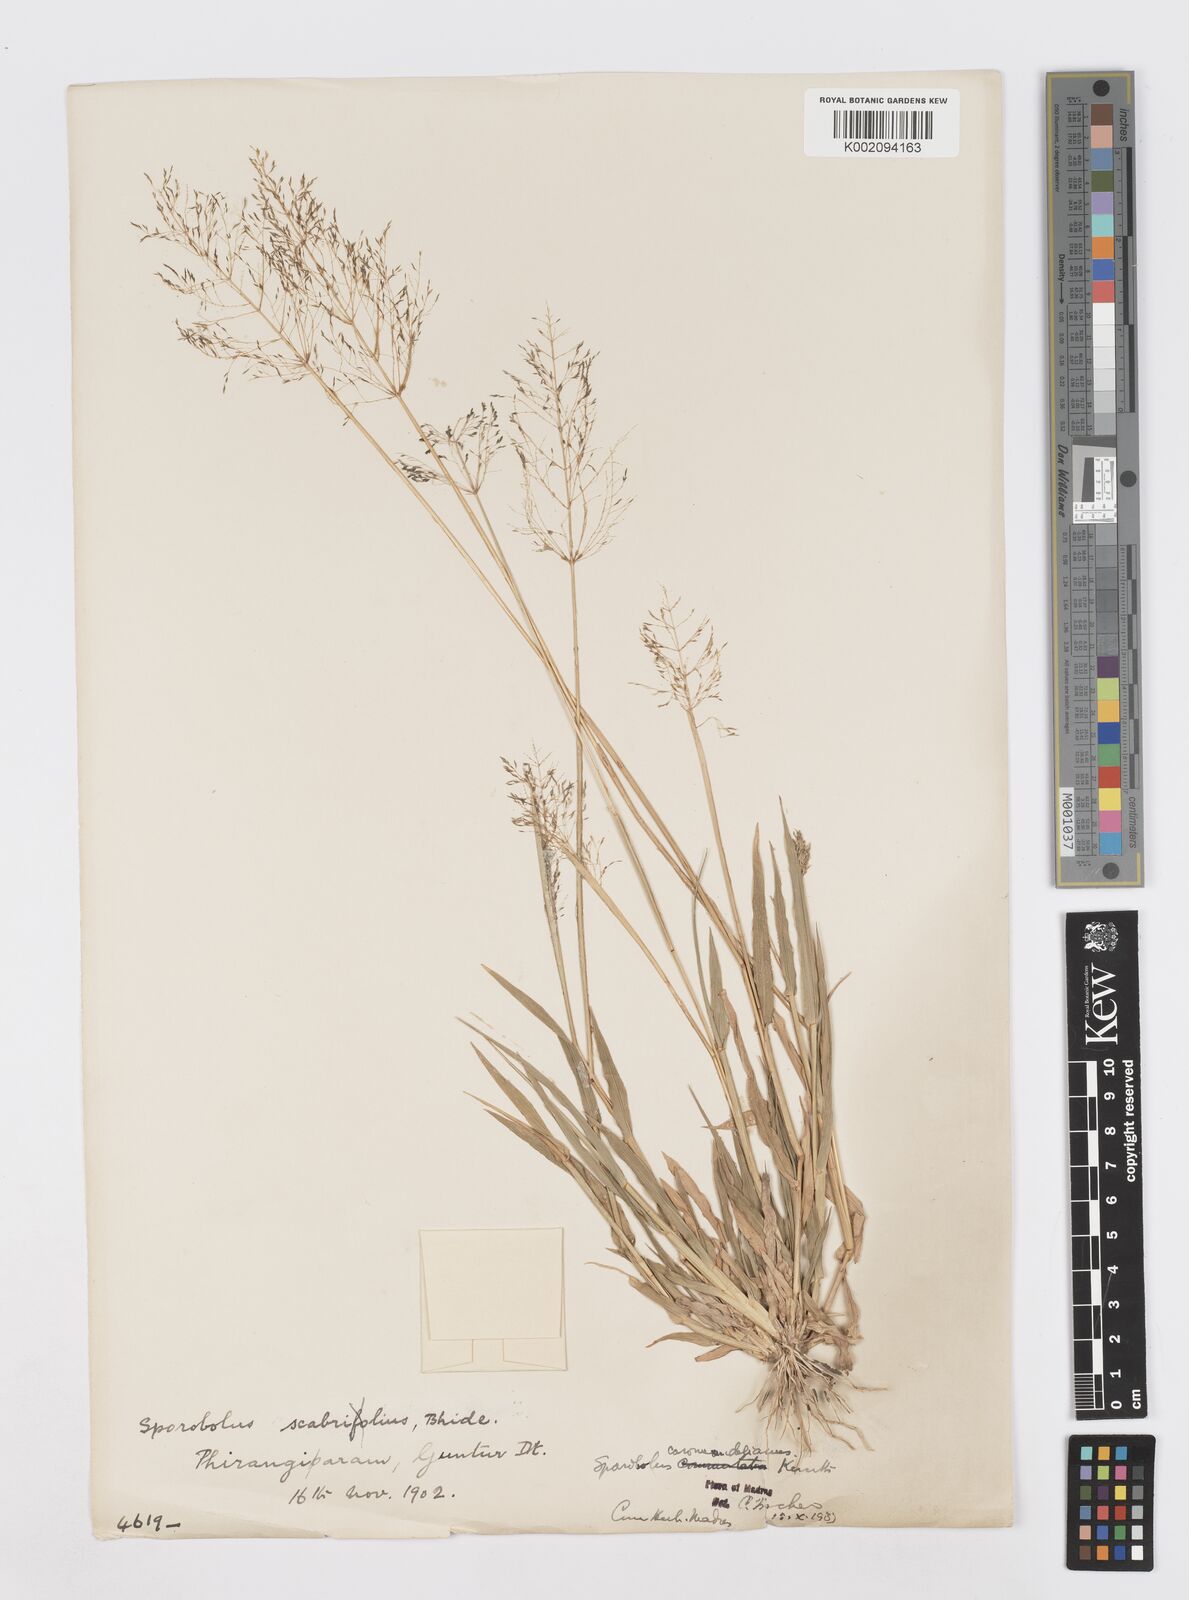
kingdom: Plantae
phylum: Tracheophyta
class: Liliopsida
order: Poales
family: Poaceae
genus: Sporobolus
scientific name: Sporobolus coromandelianus
